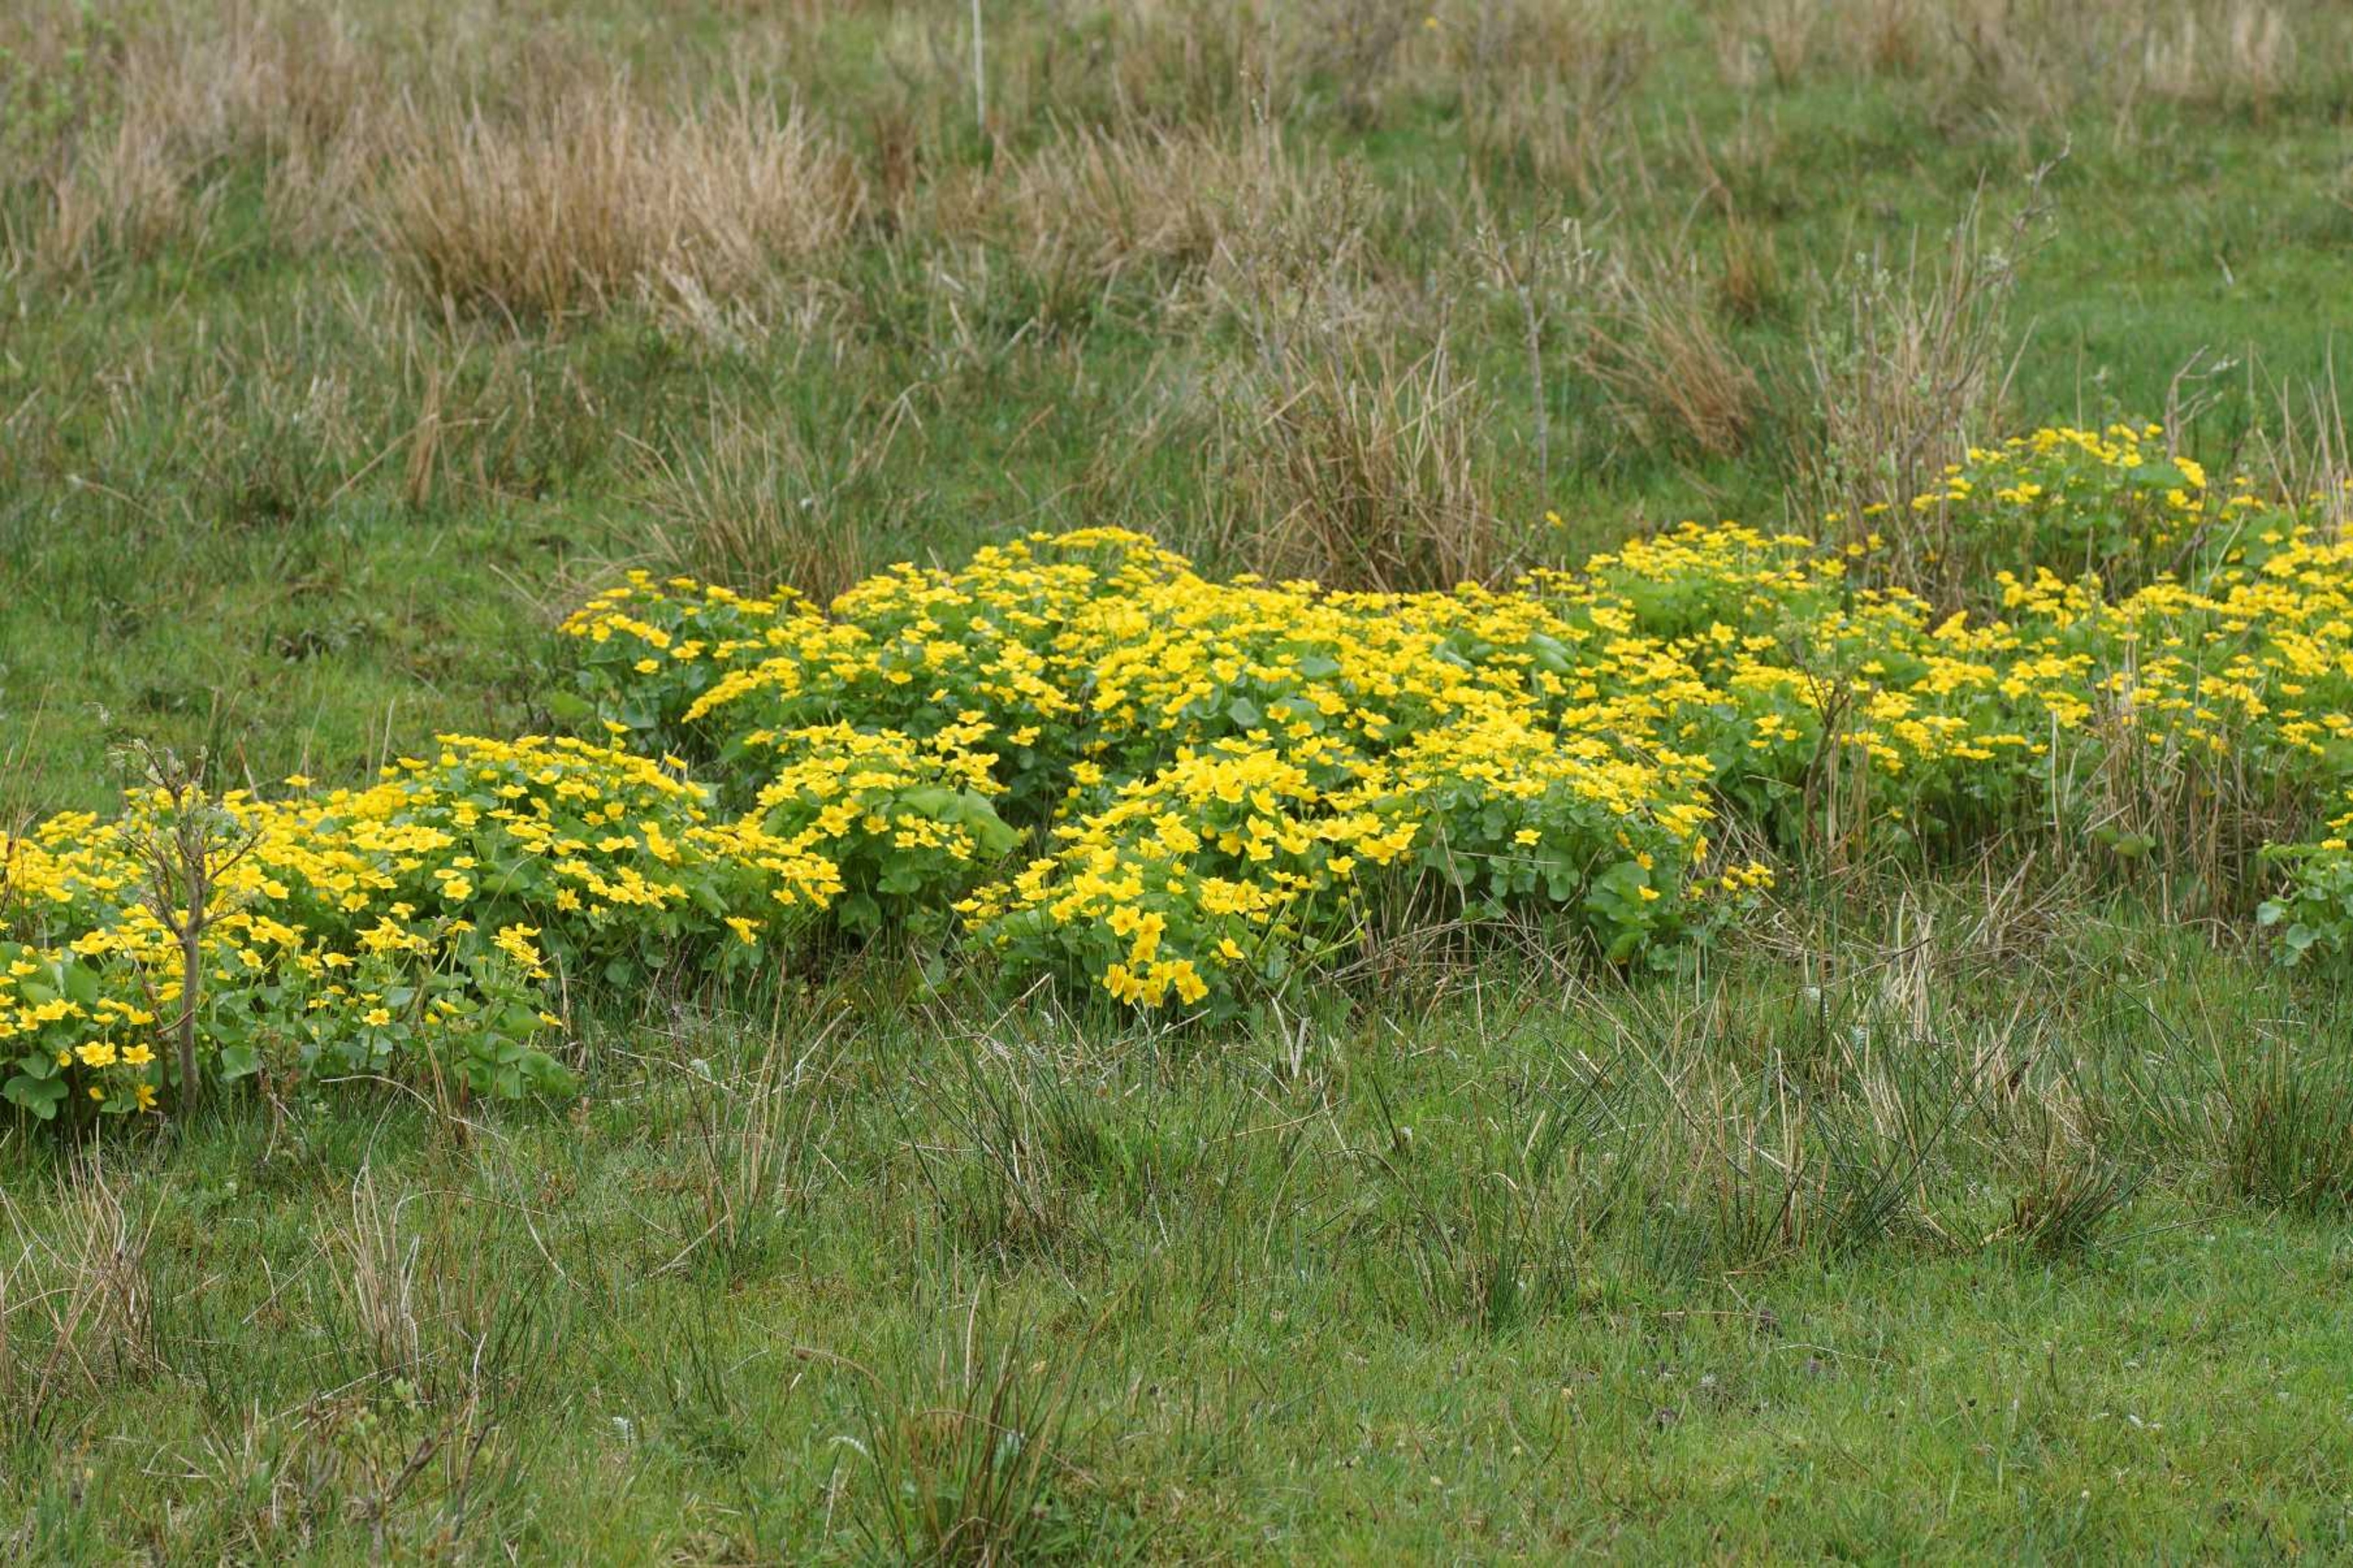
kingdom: Plantae
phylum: Tracheophyta
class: Magnoliopsida
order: Ranunculales
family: Ranunculaceae
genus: Caltha
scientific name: Caltha palustris
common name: Eng-kabbeleje
